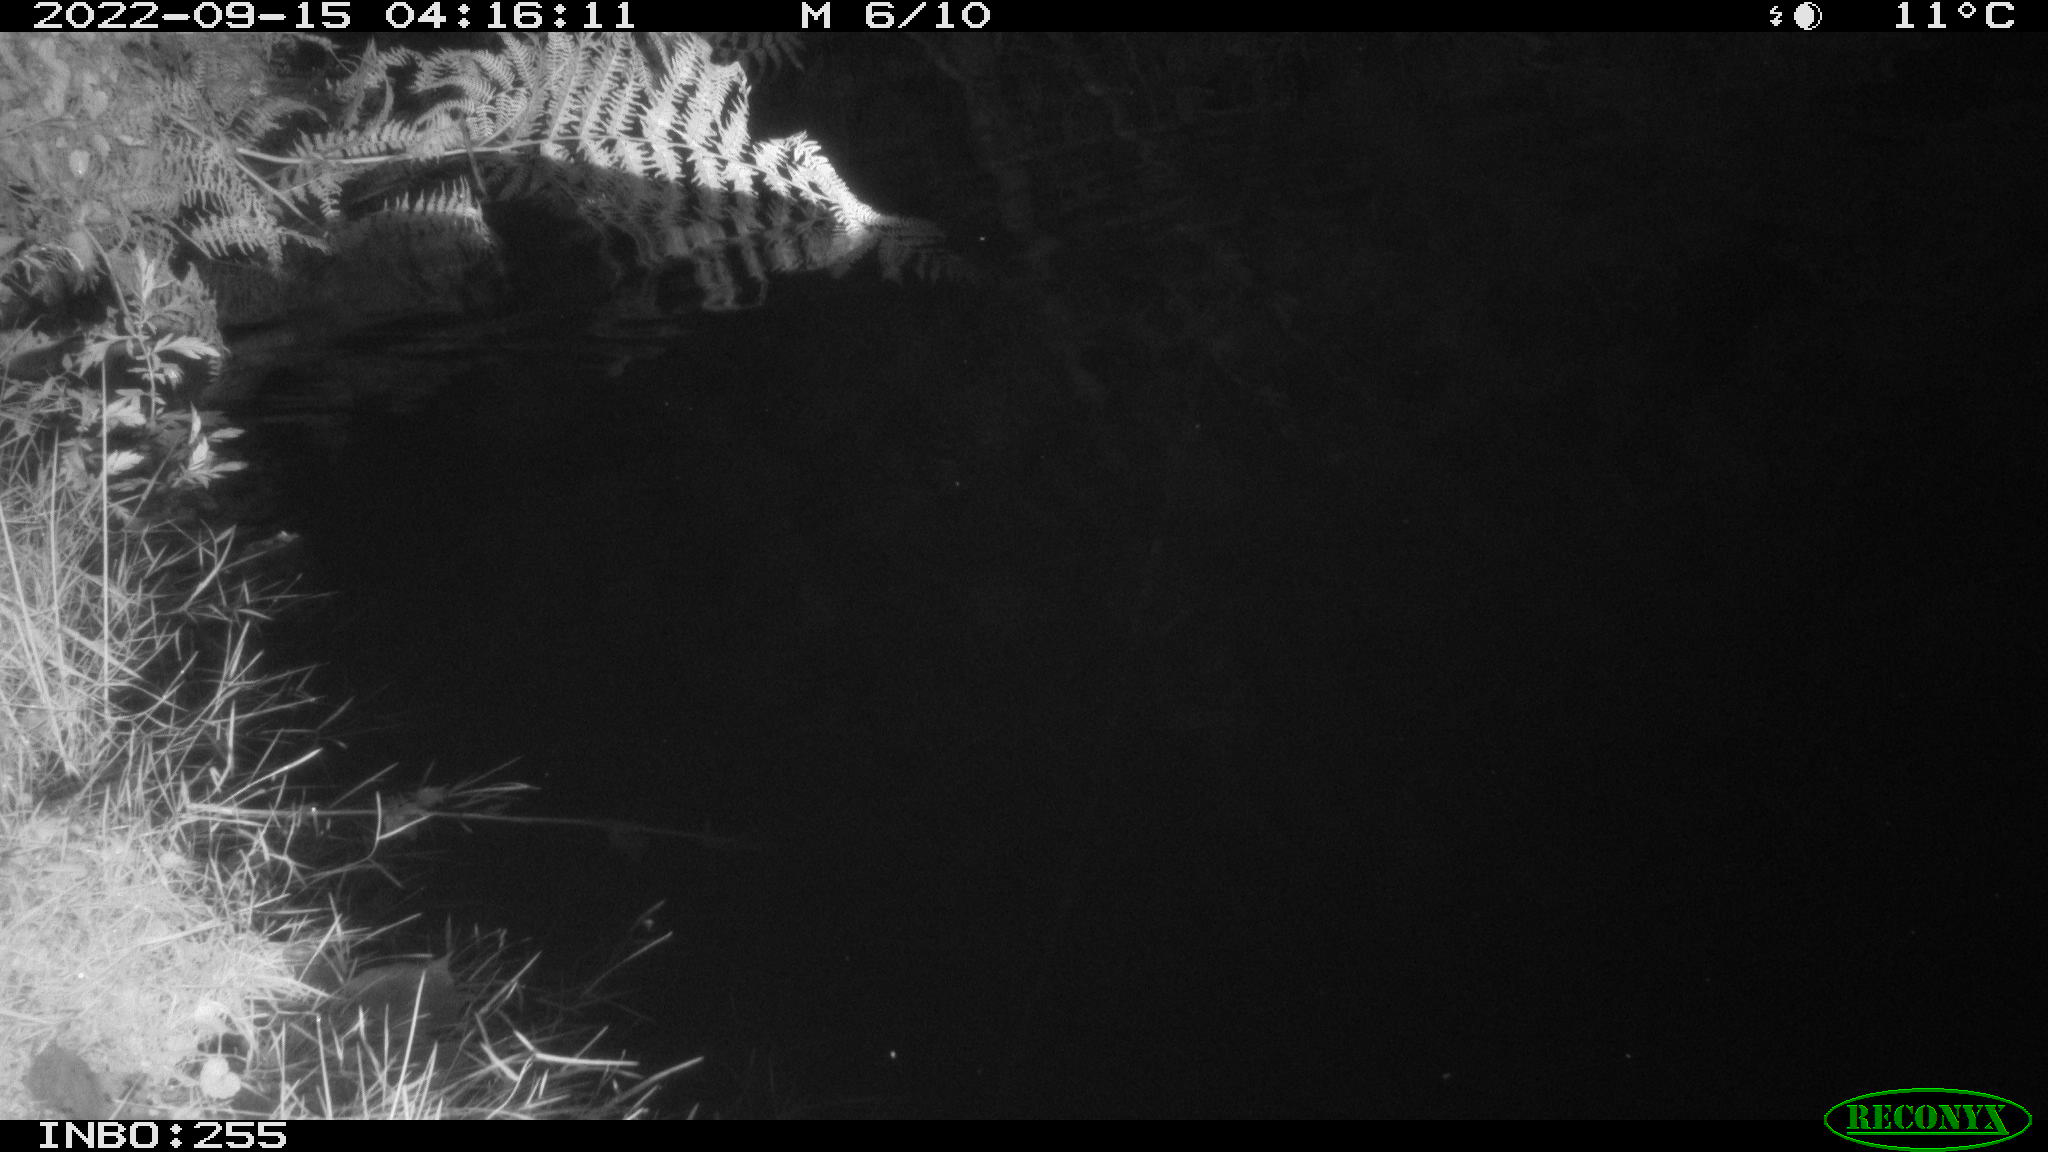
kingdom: Animalia
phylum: Chordata
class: Mammalia
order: Rodentia
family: Muridae
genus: Rattus
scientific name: Rattus norvegicus
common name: Brown rat
